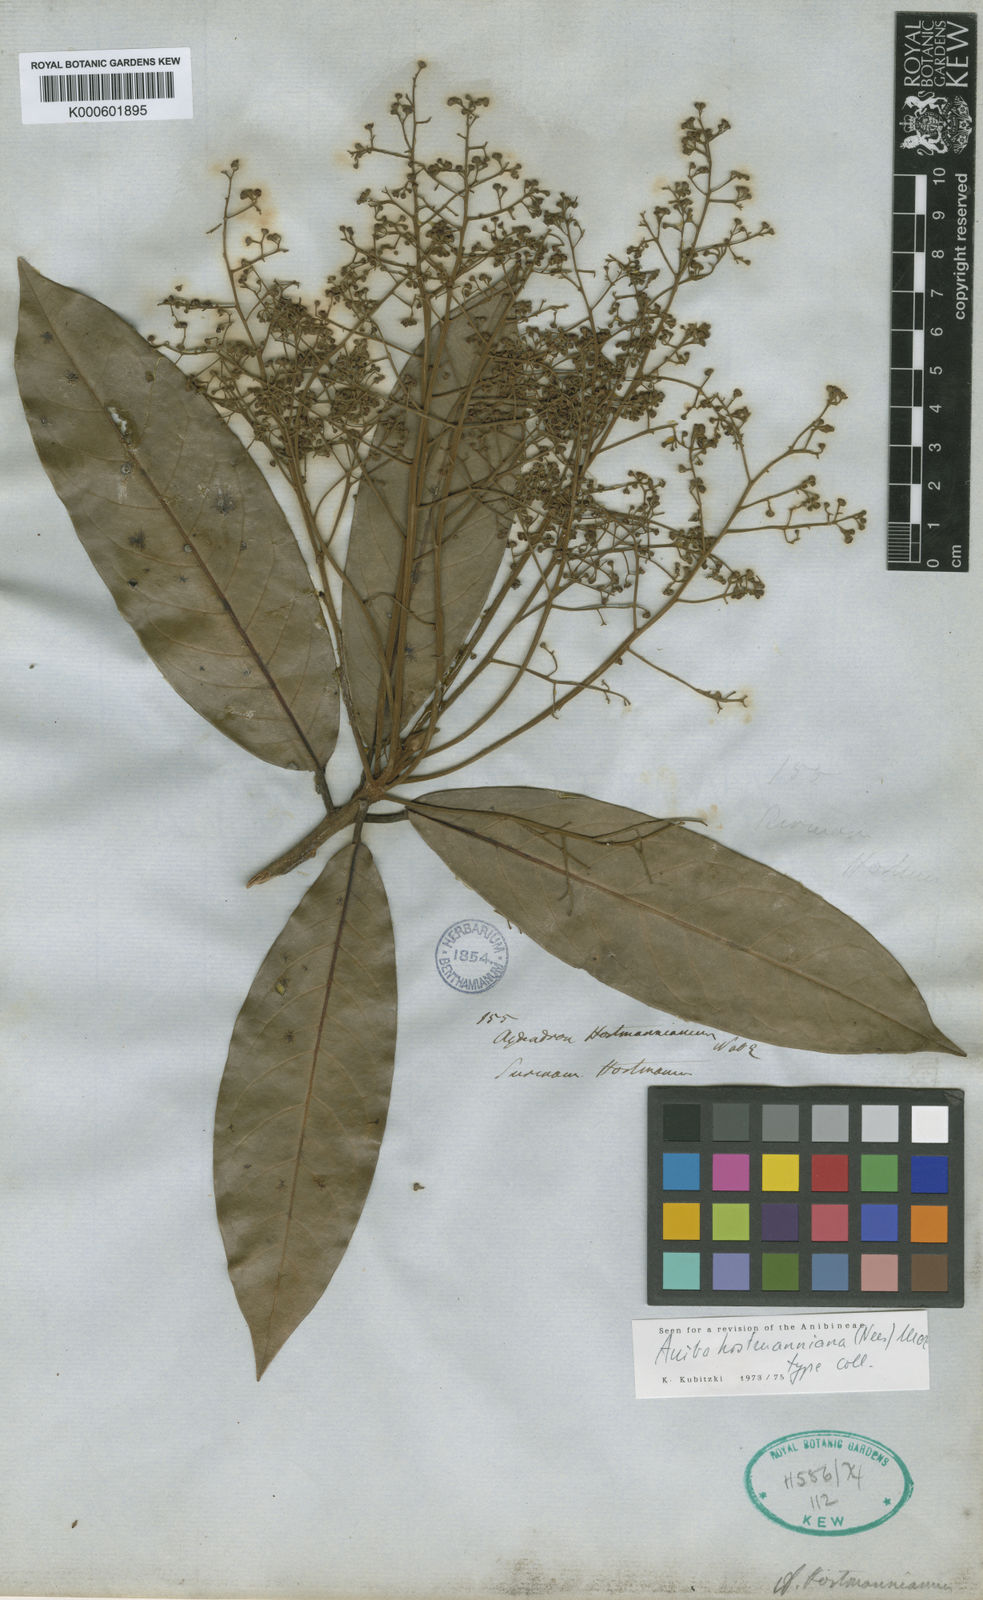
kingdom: Plantae
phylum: Tracheophyta
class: Magnoliopsida
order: Laurales
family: Lauraceae
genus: Aniba
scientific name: Aniba hostmanniana
